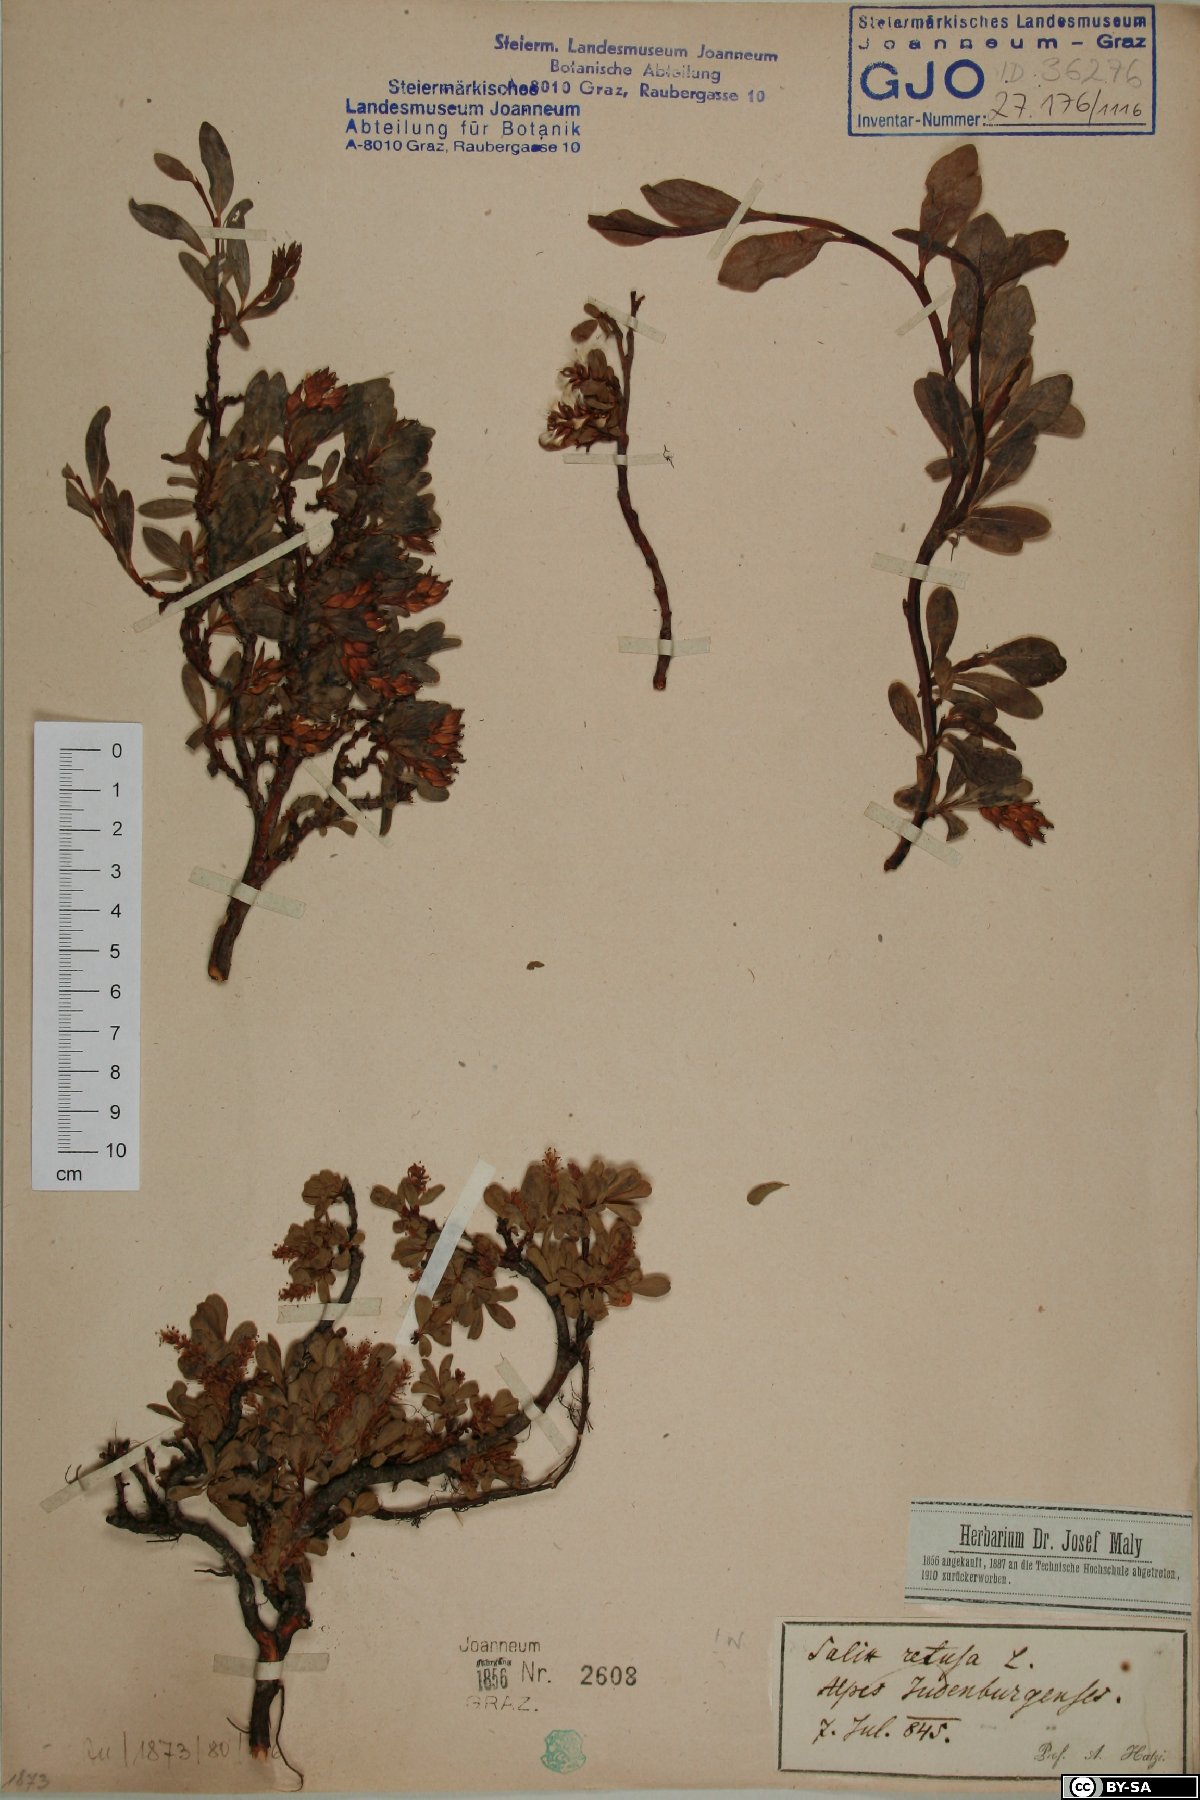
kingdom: Plantae
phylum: Tracheophyta
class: Magnoliopsida
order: Malpighiales
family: Salicaceae
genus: Salix
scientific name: Salix retusa
